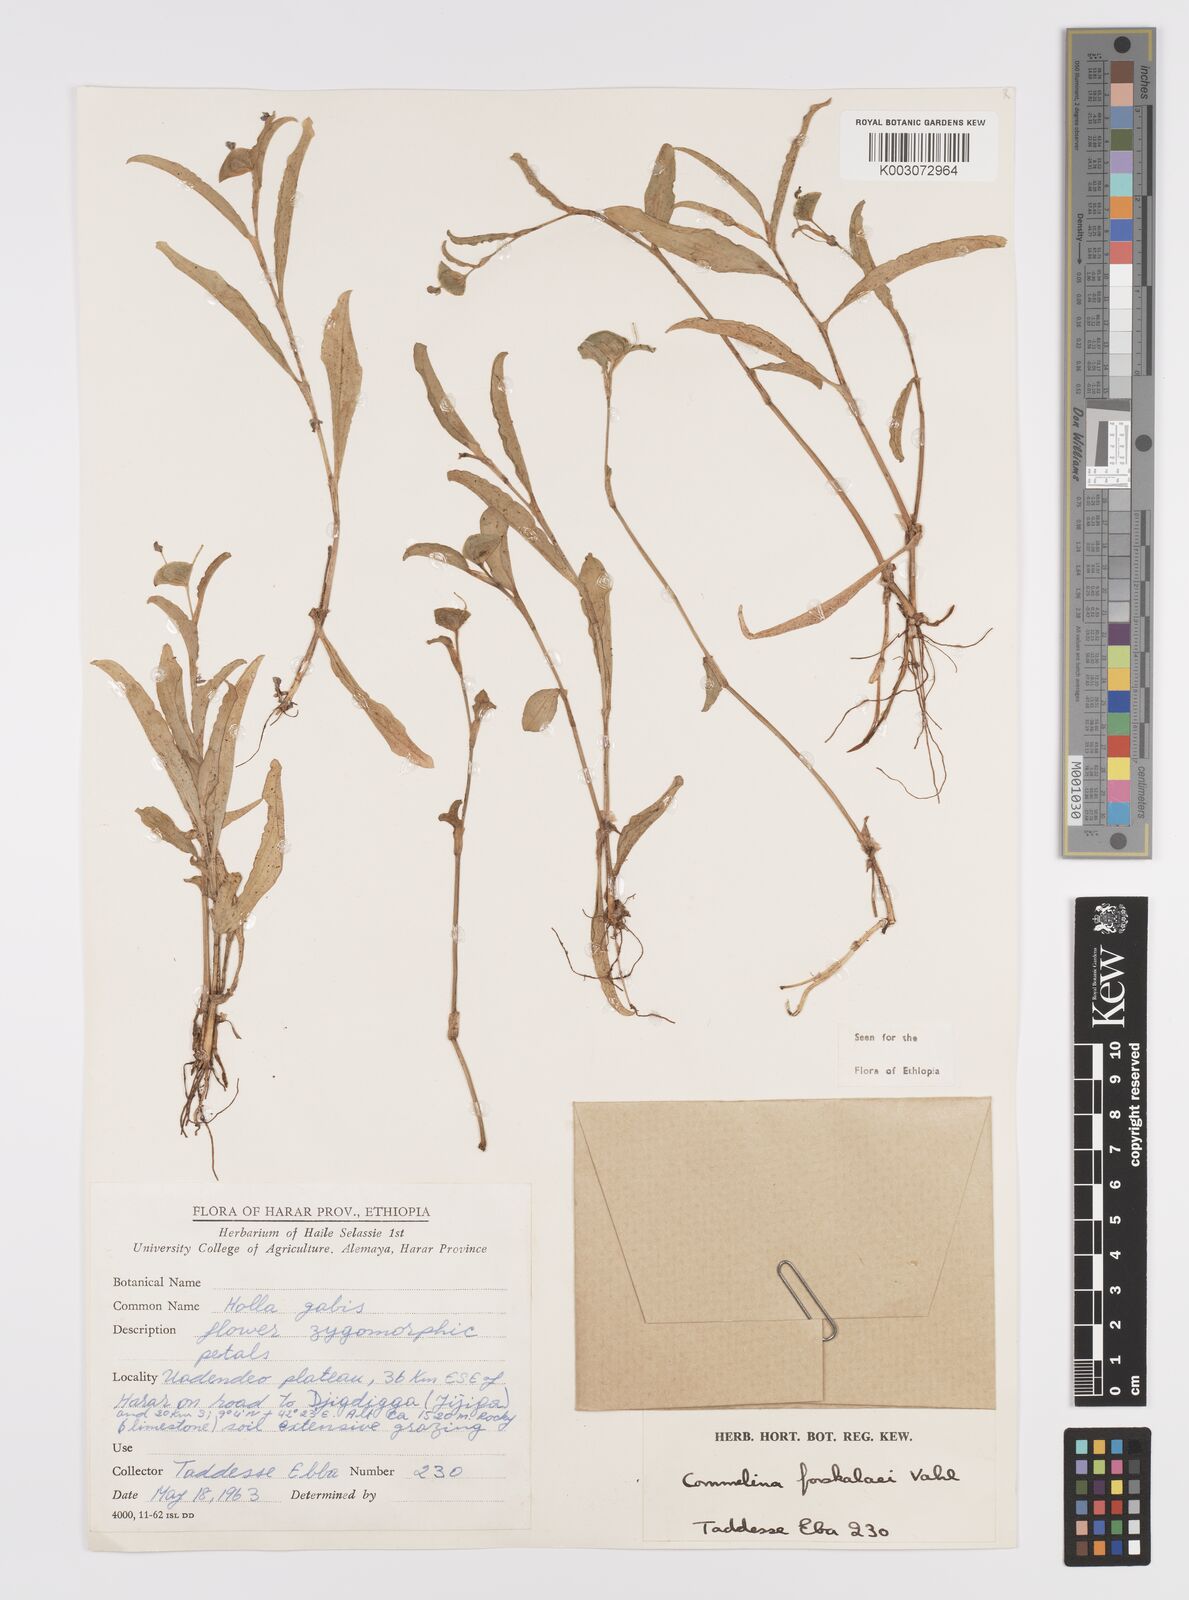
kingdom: Plantae
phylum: Tracheophyta
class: Liliopsida
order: Commelinales
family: Commelinaceae
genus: Commelina
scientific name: Commelina forskaolii
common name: Rat's ear
